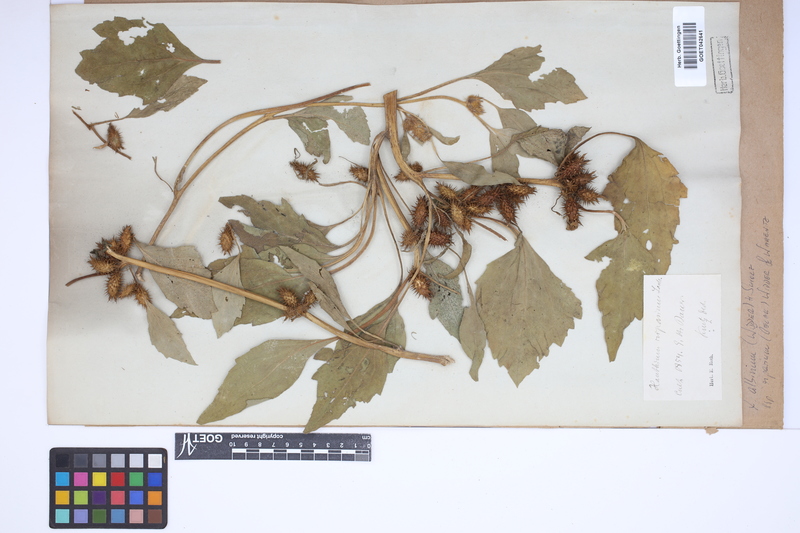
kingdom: Plantae
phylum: Tracheophyta
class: Magnoliopsida
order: Asterales
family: Asteraceae
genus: Xanthium
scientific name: Xanthium orientale
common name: Californian burr
